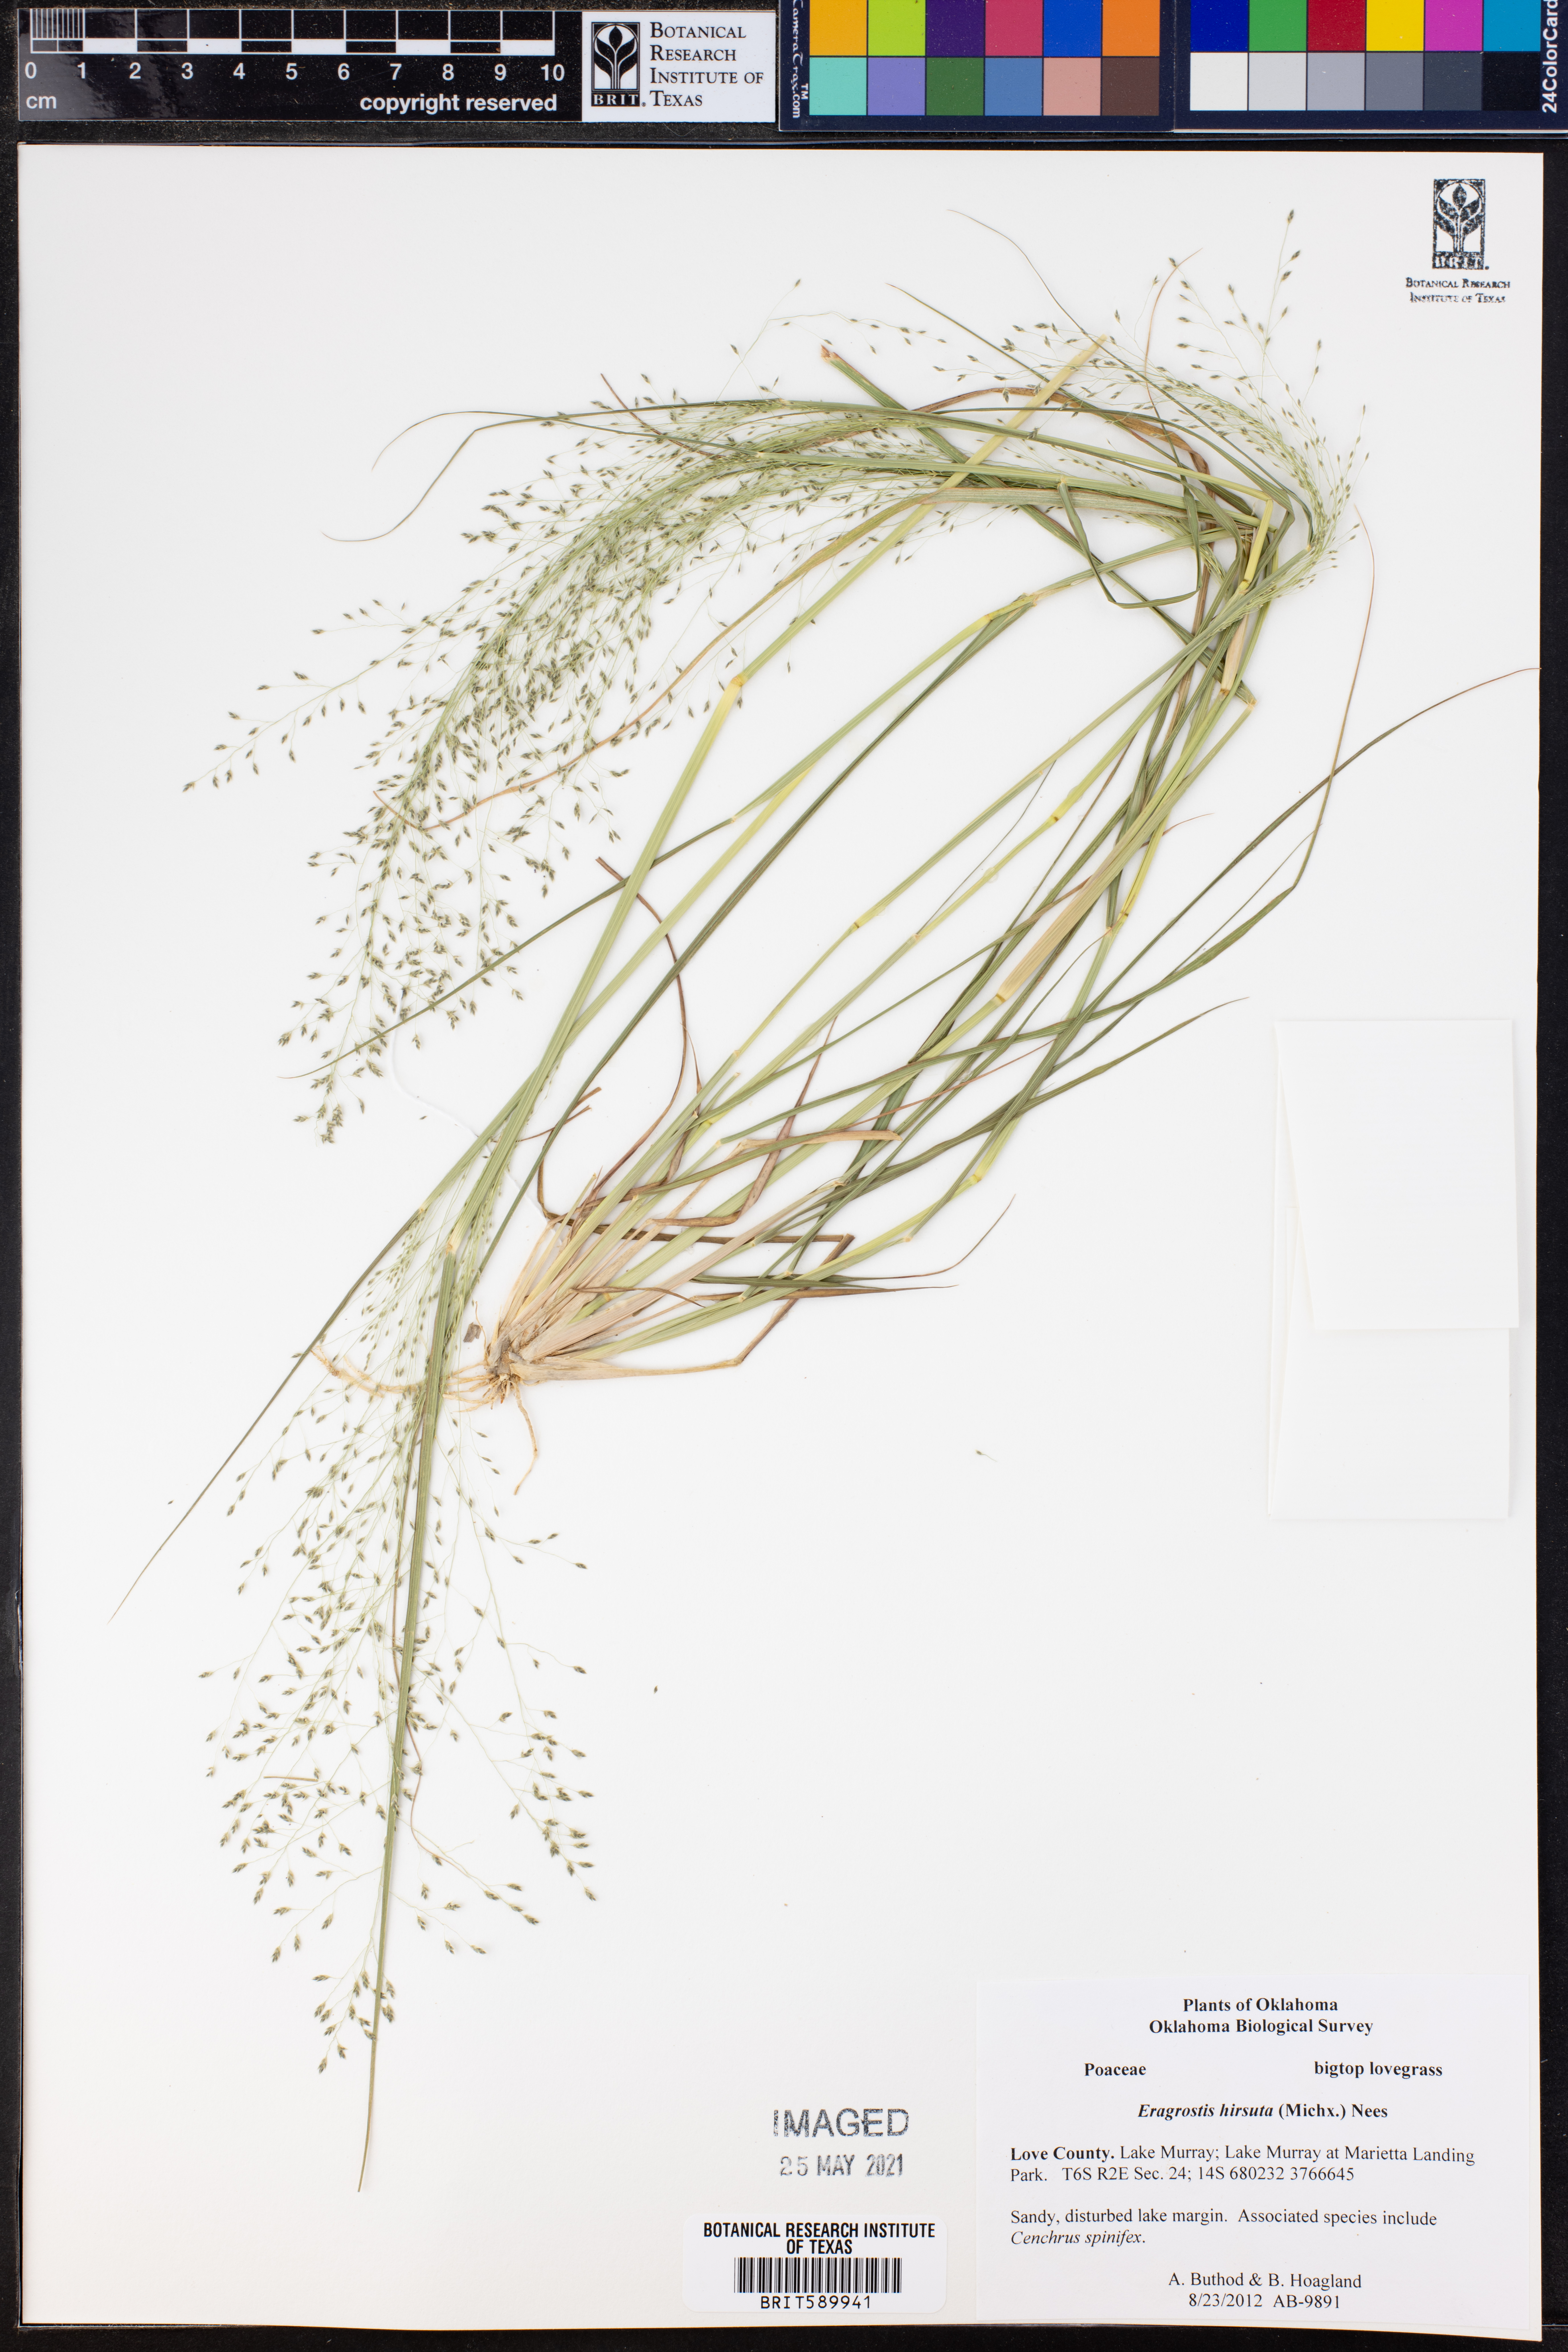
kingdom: Plantae
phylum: Tracheophyta
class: Liliopsida
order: Poales
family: Poaceae
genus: Eragrostis
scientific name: Eragrostis hirsuta
